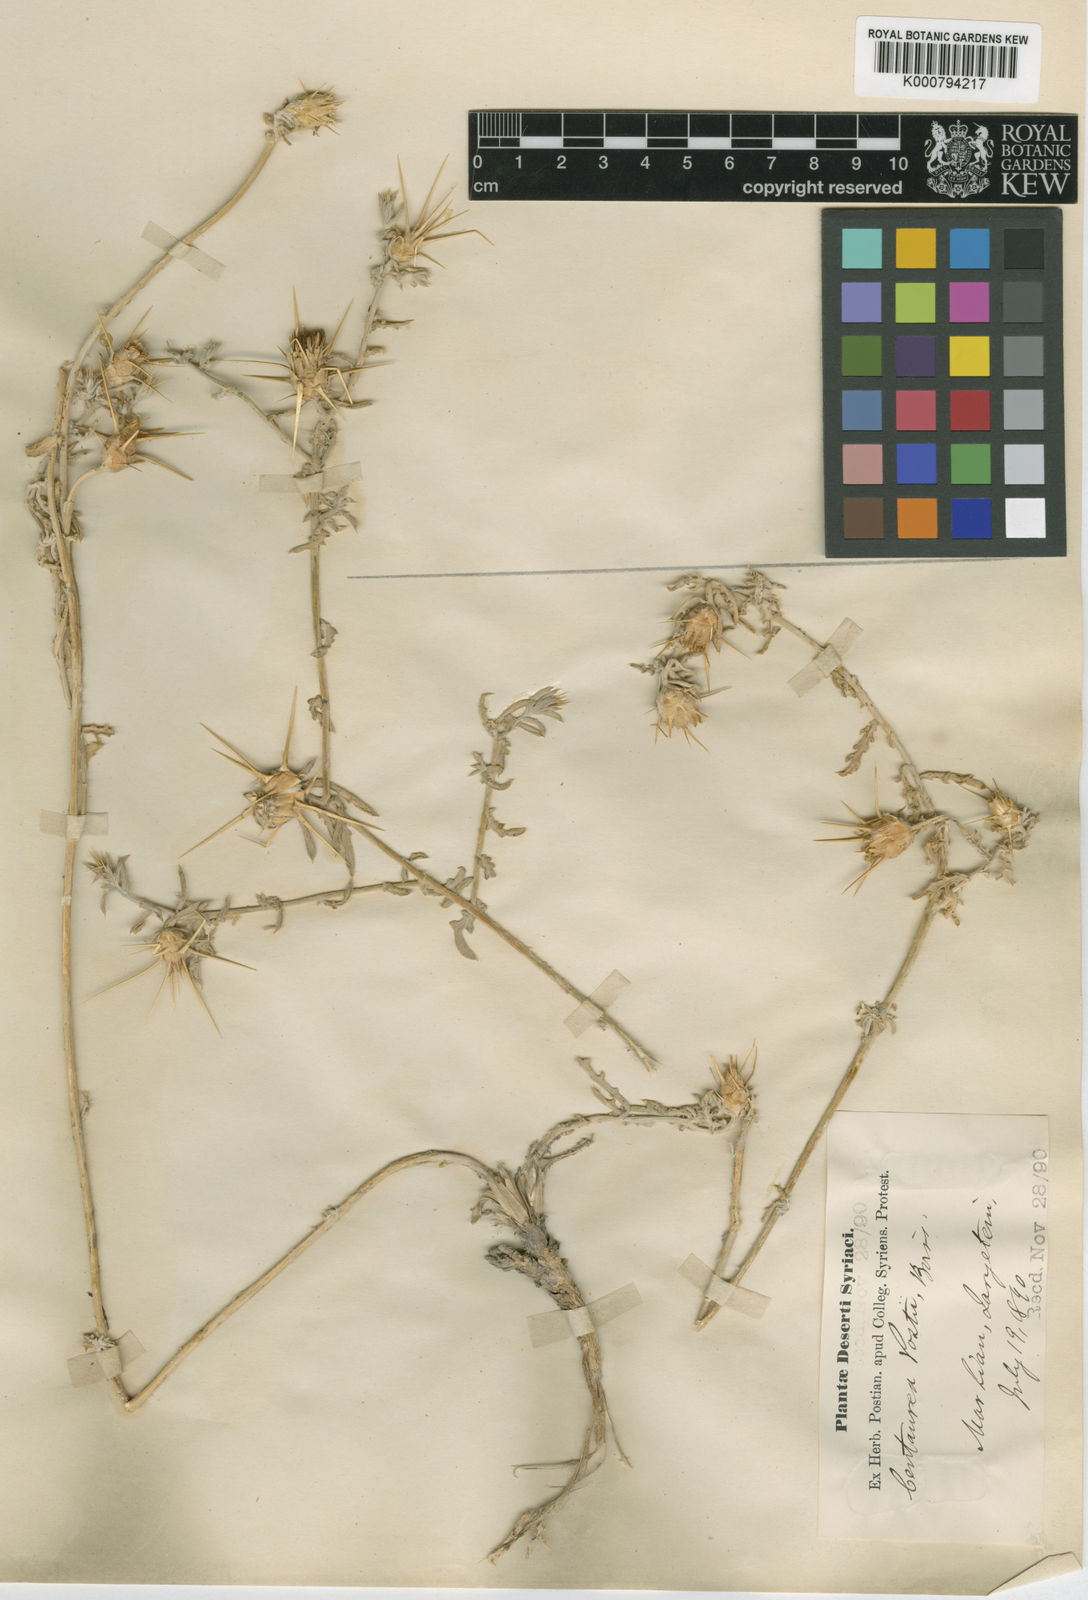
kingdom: Plantae
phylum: Tracheophyta
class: Magnoliopsida
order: Asterales
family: Asteraceae
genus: Centaurea
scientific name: Centaurea postii
